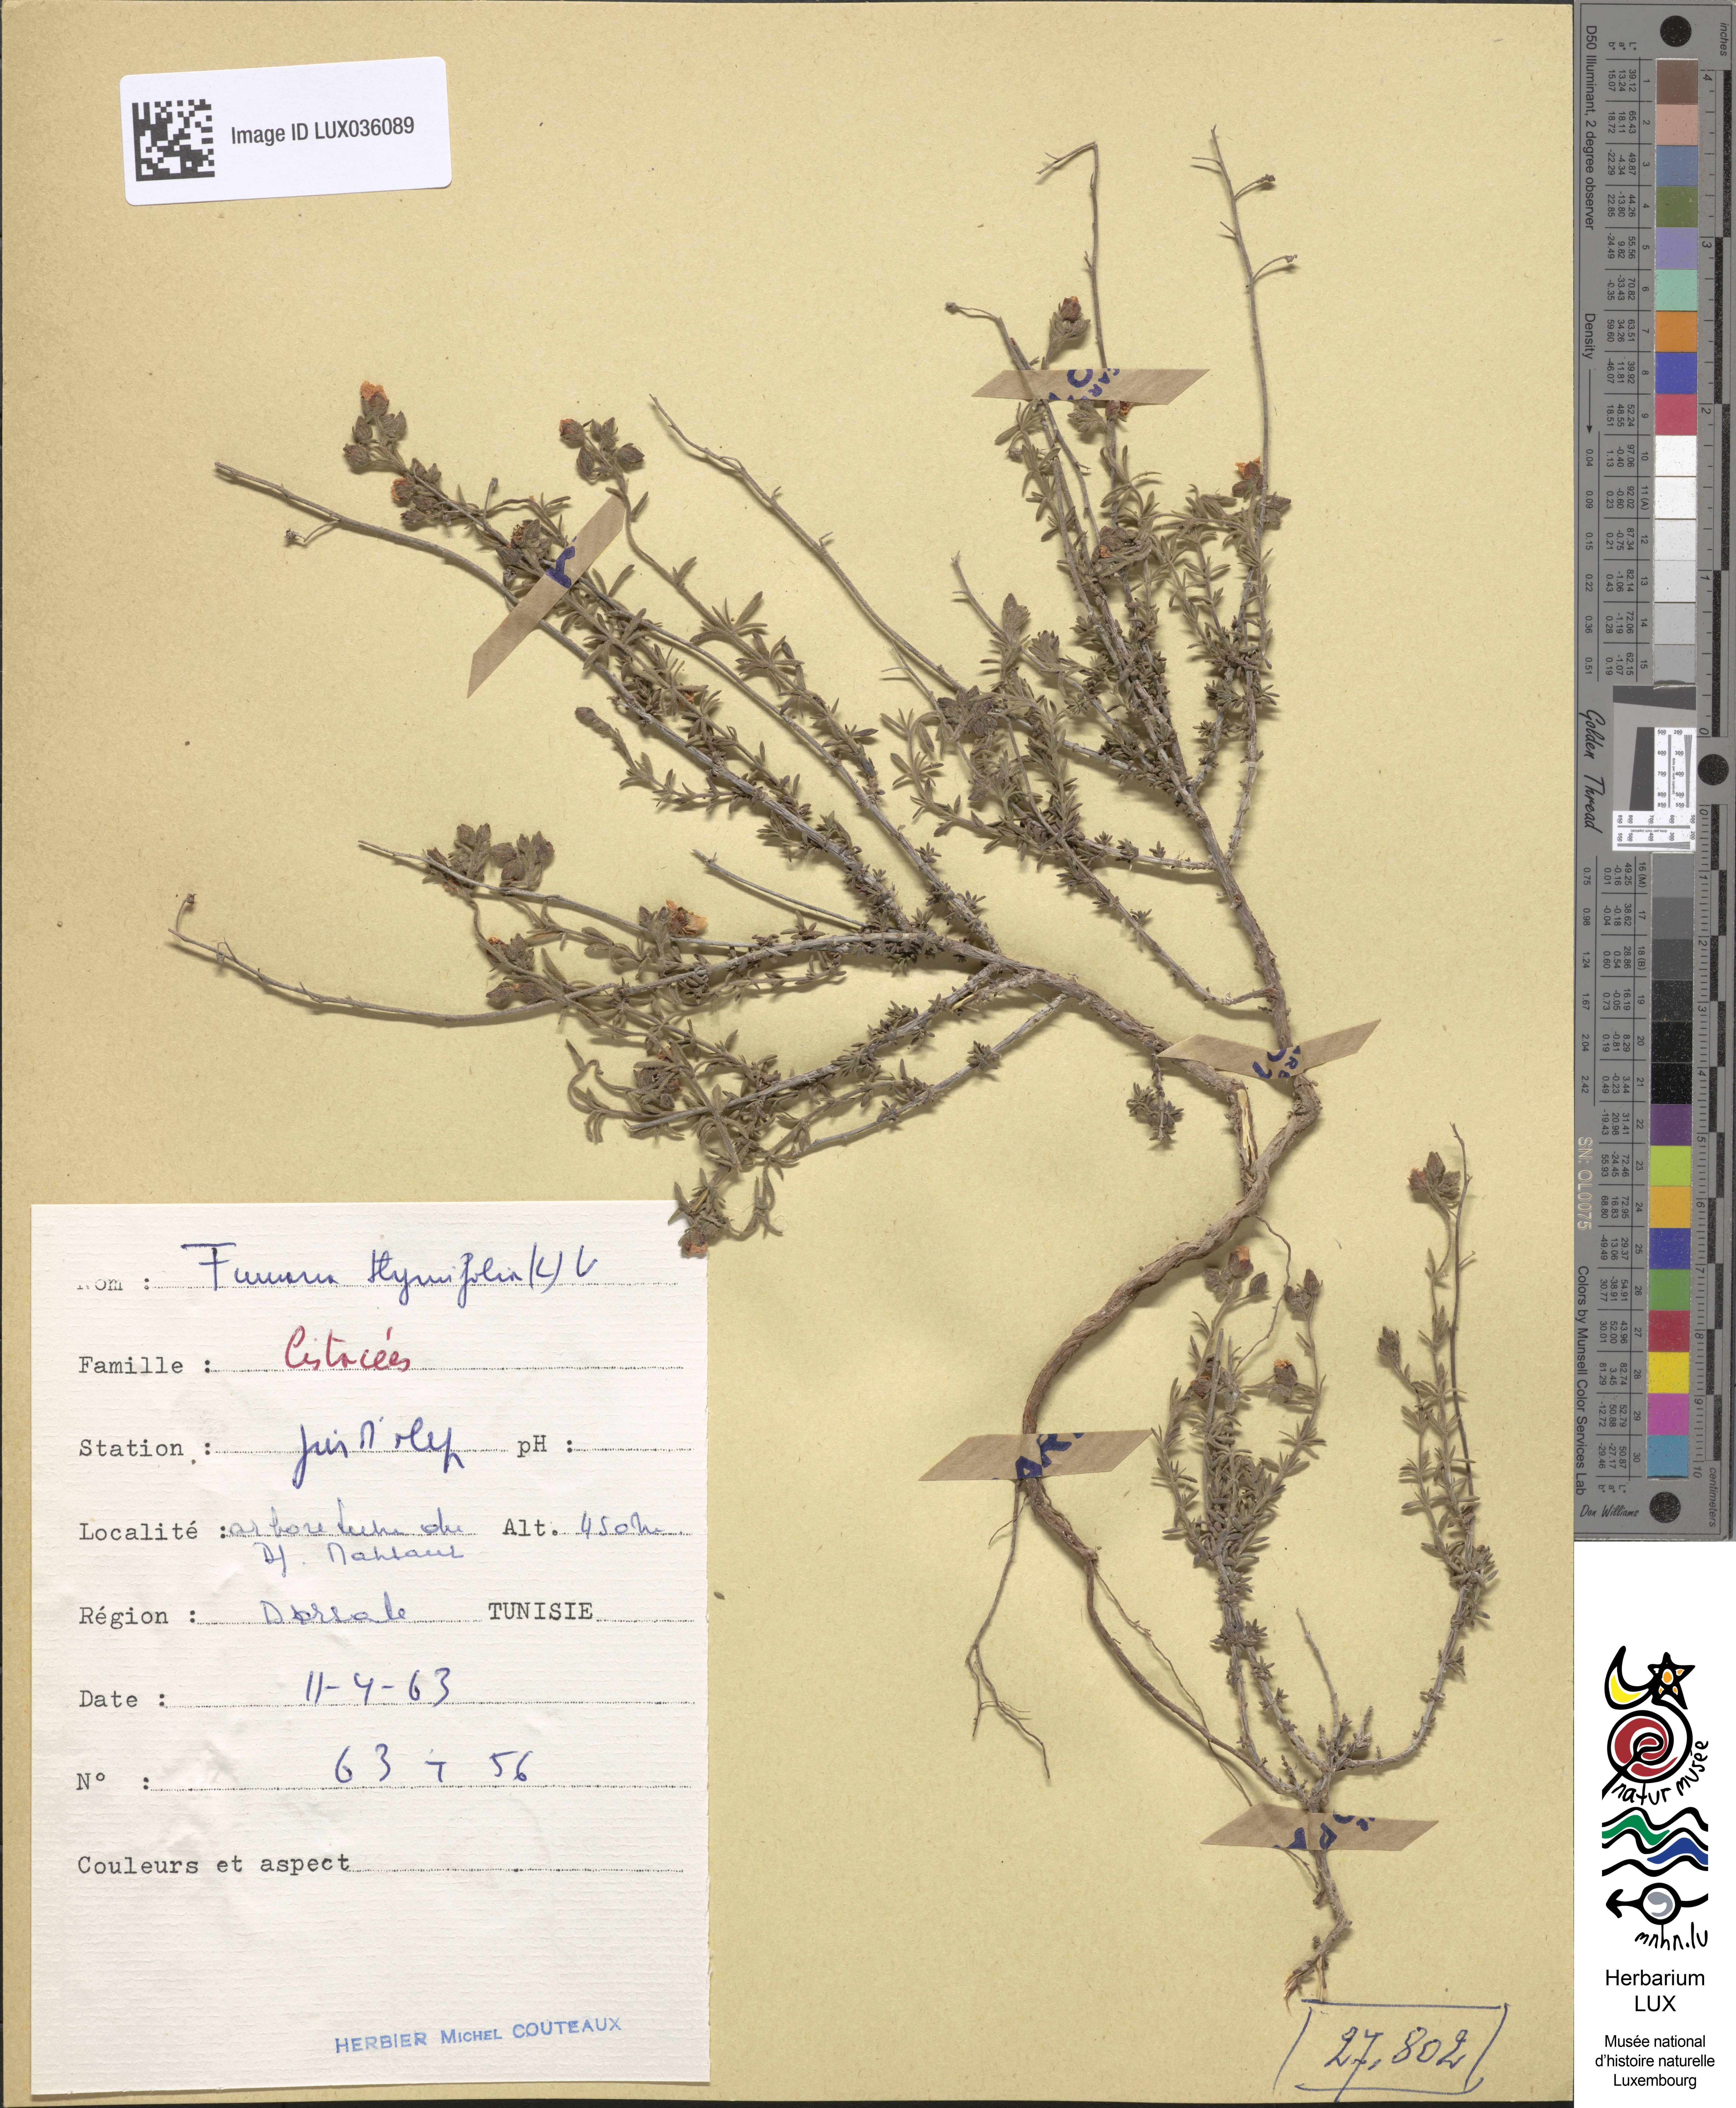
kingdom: Plantae
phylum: Tracheophyta
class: Magnoliopsida
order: Malvales
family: Cistaceae
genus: Fumana
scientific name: Fumana thymifolia
